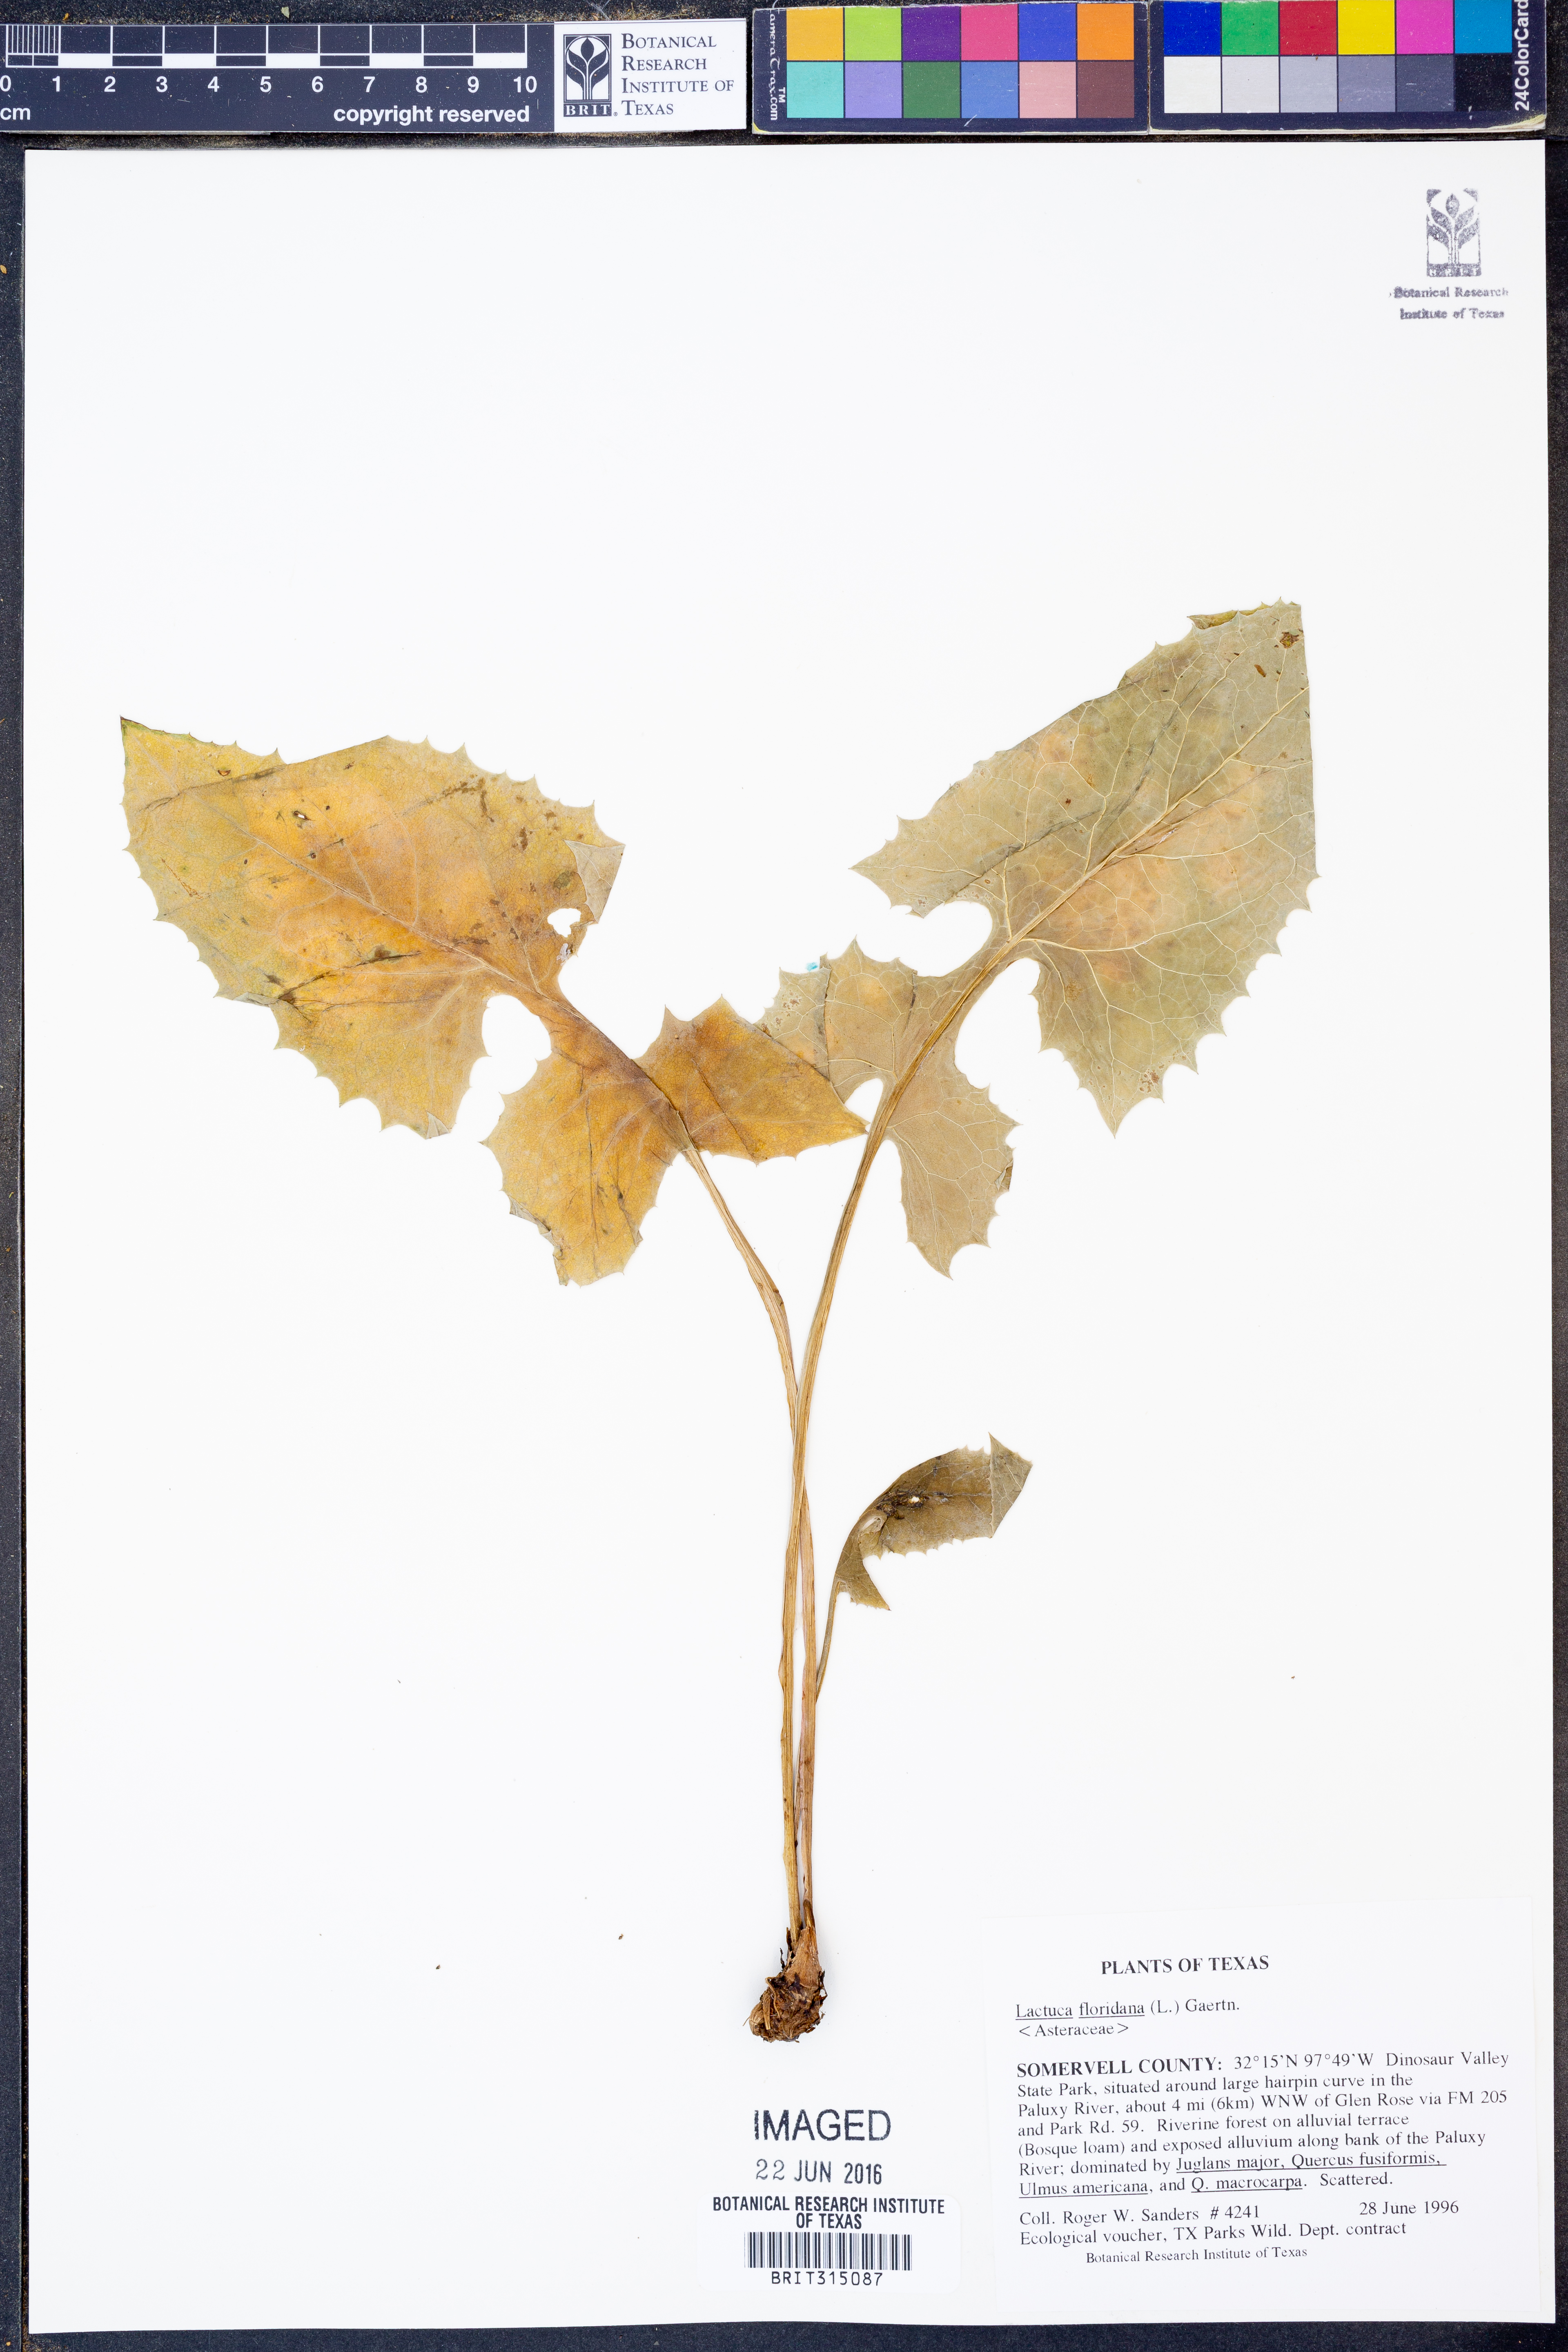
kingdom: Plantae
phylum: Tracheophyta
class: Magnoliopsida
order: Asterales
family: Asteraceae
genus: Lactuca
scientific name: Lactuca floridana
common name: Woodland lettuce
